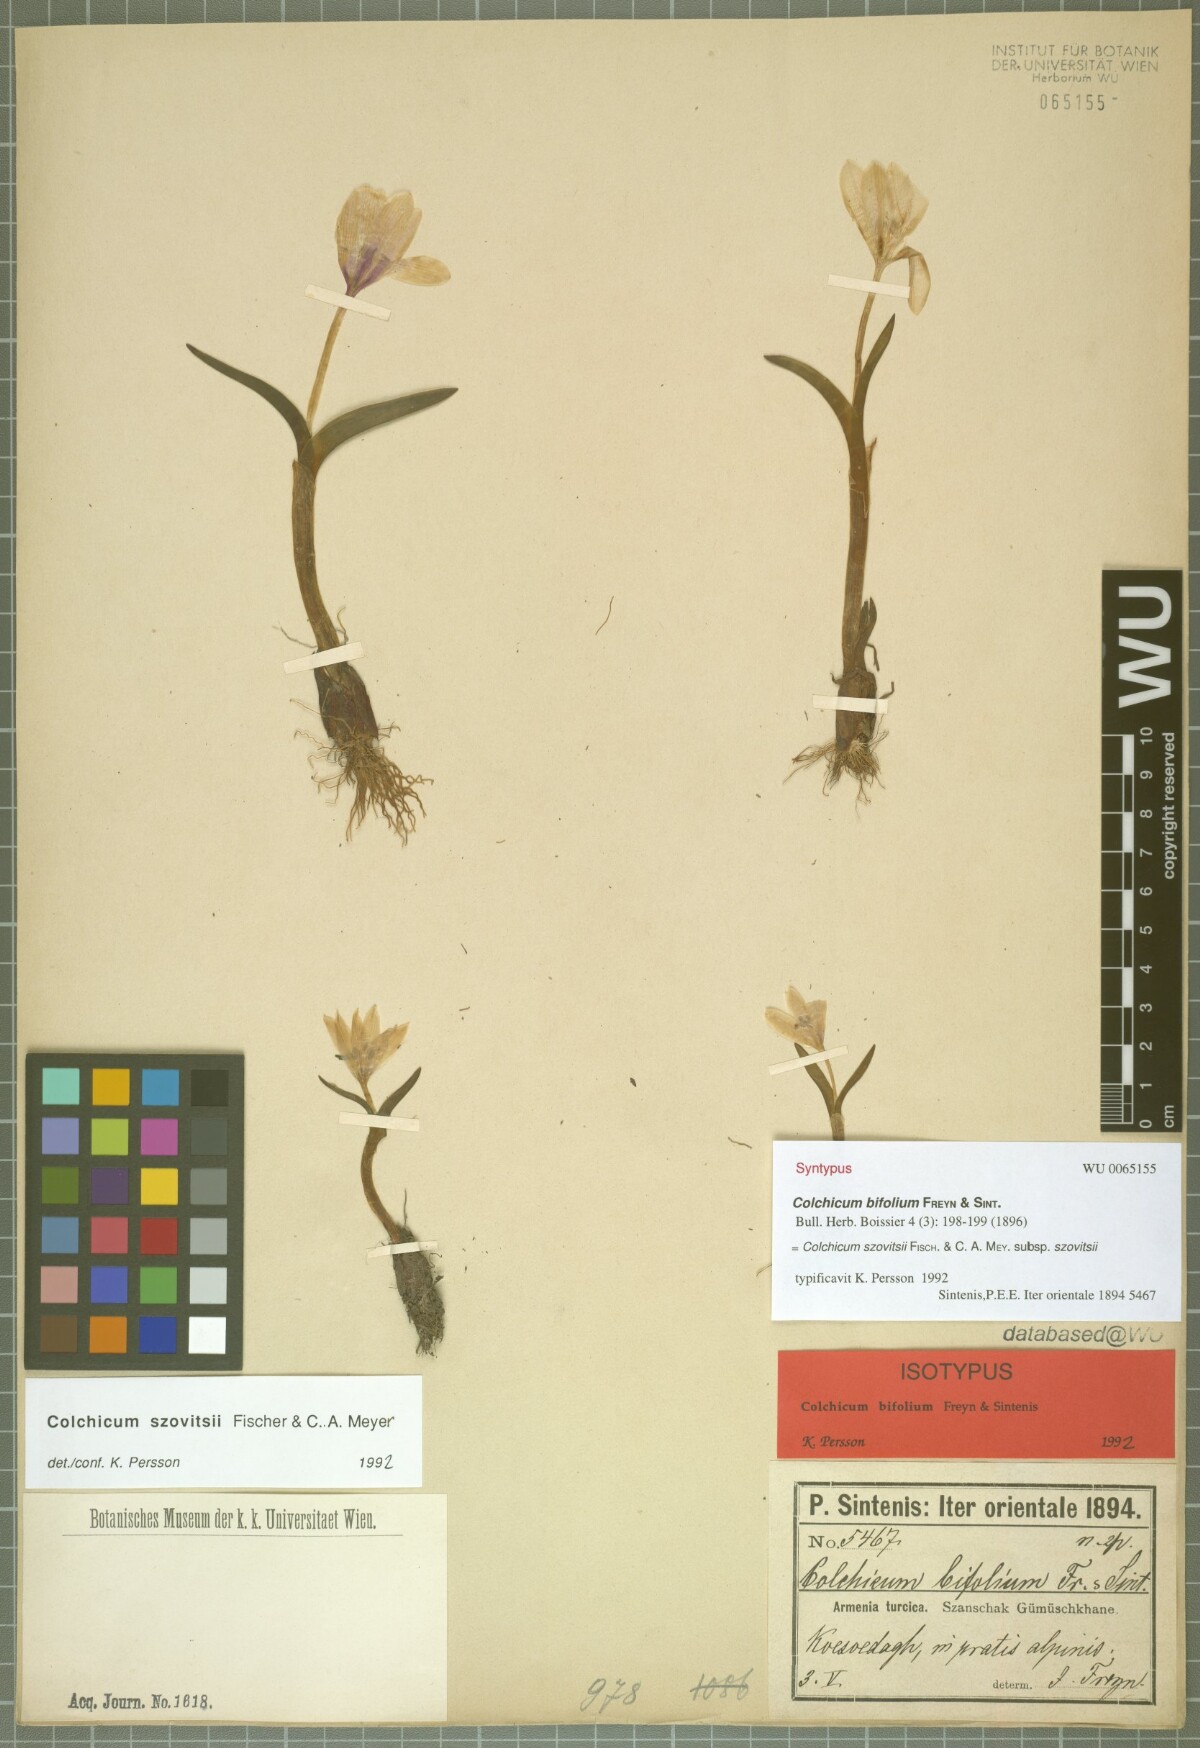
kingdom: Plantae
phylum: Tracheophyta
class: Liliopsida
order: Liliales
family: Colchicaceae
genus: Colchicum
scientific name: Colchicum szovitsii
